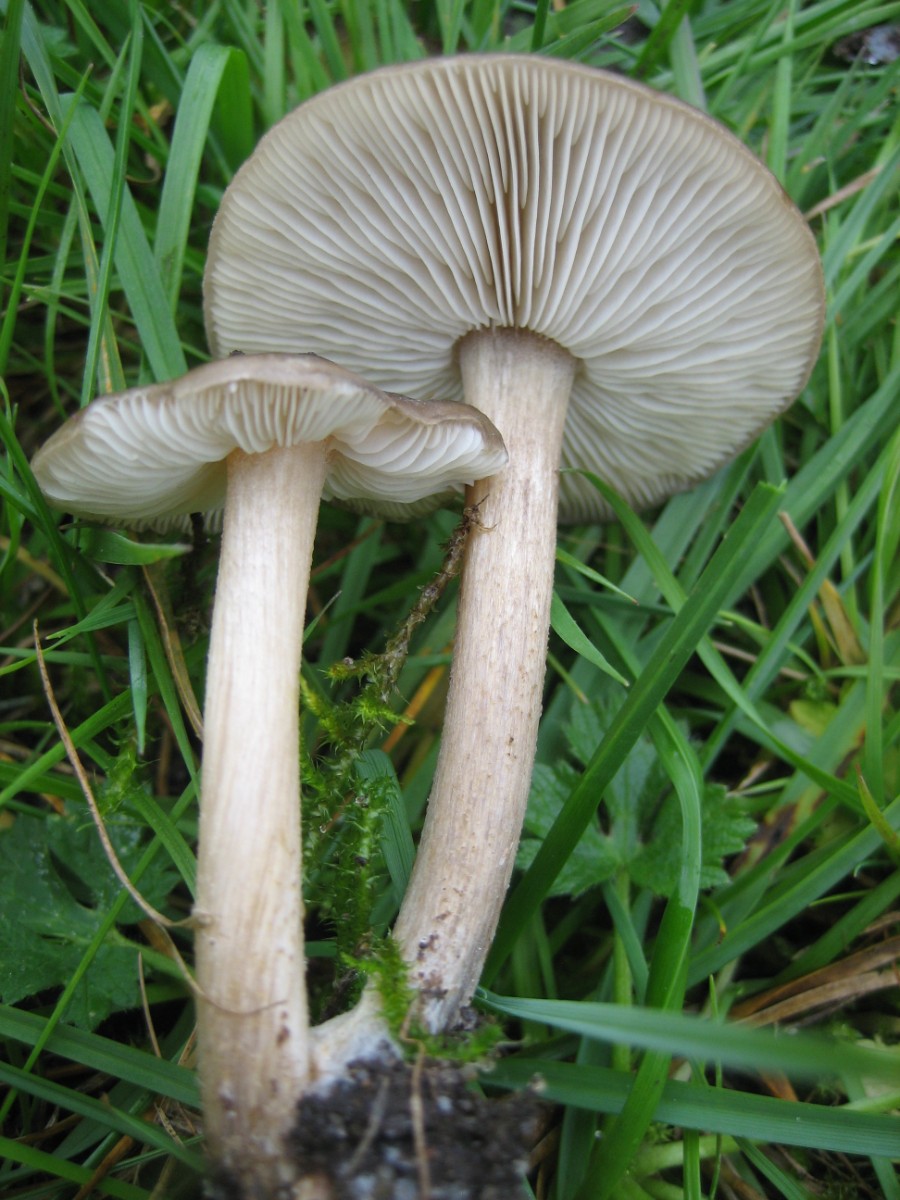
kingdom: Fungi
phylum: Basidiomycota
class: Agaricomycetes
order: Agaricales
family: Tricholomataceae
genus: Melanoleuca
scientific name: Melanoleuca
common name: munkehat
